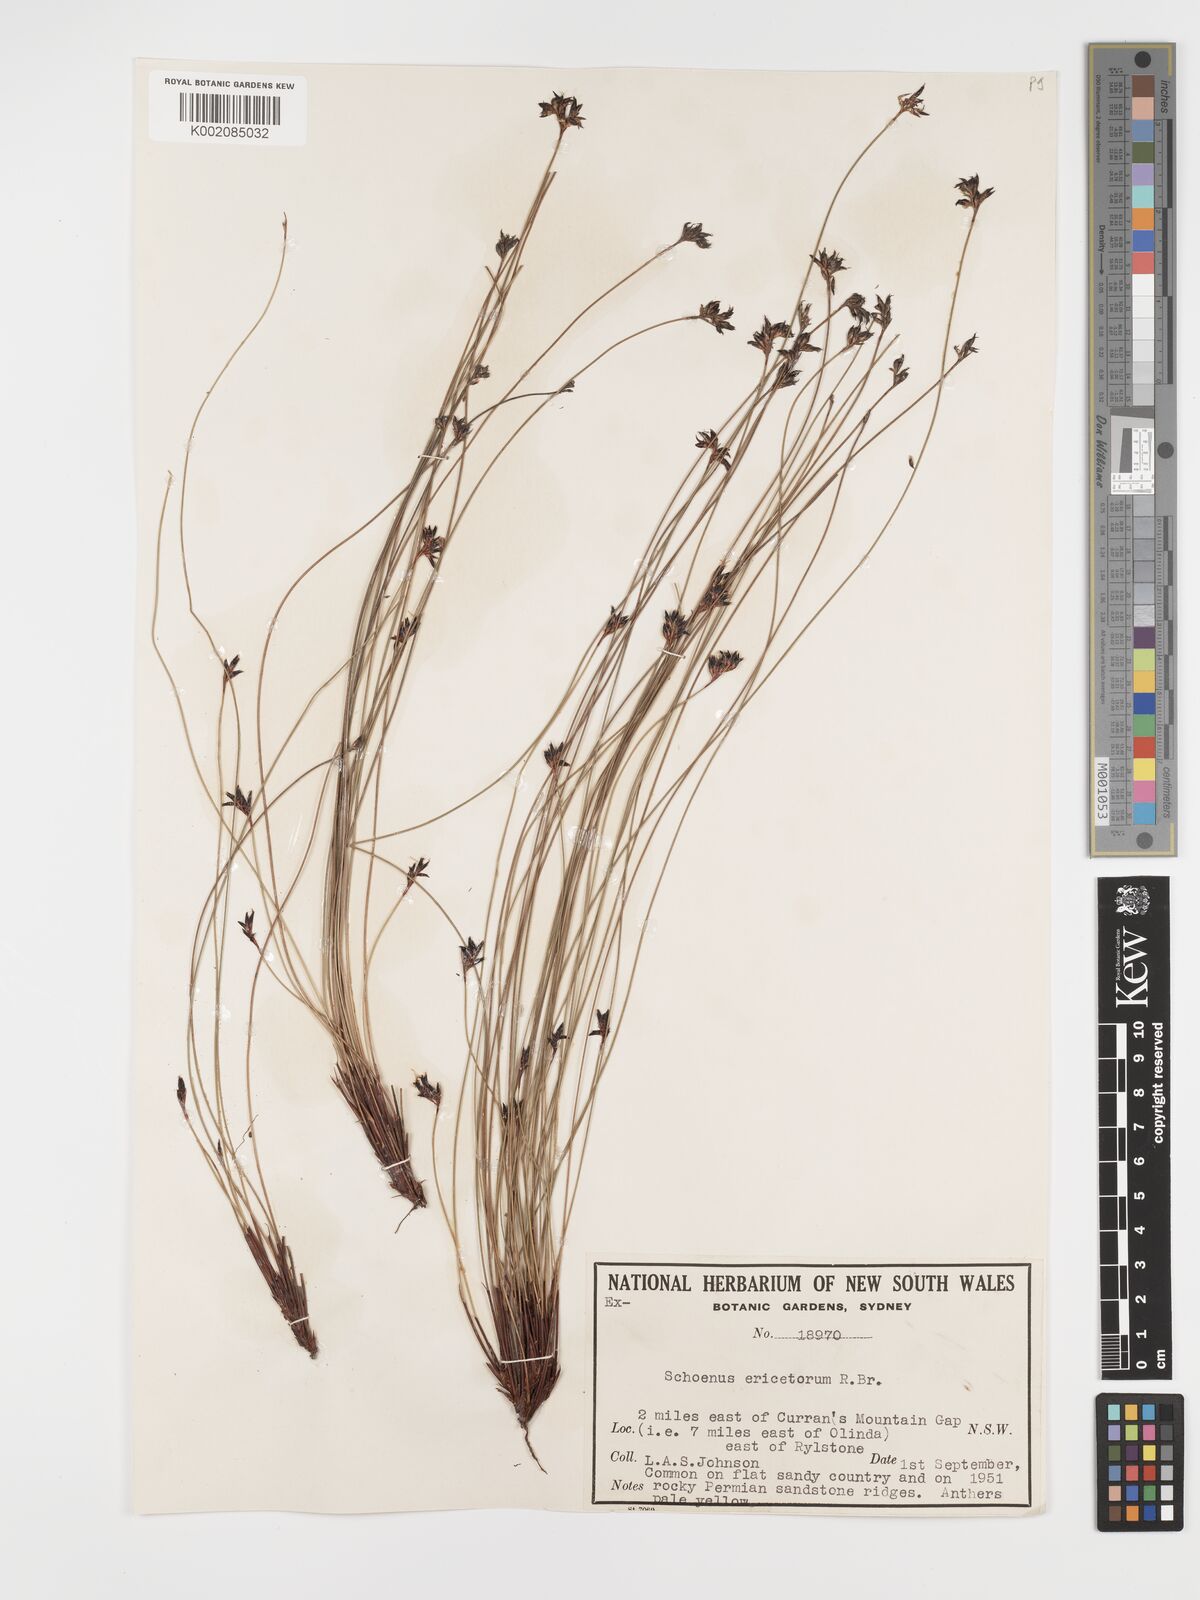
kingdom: Plantae
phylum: Tracheophyta
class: Liliopsida
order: Poales
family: Cyperaceae
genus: Schoenus
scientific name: Schoenus ericetorum
